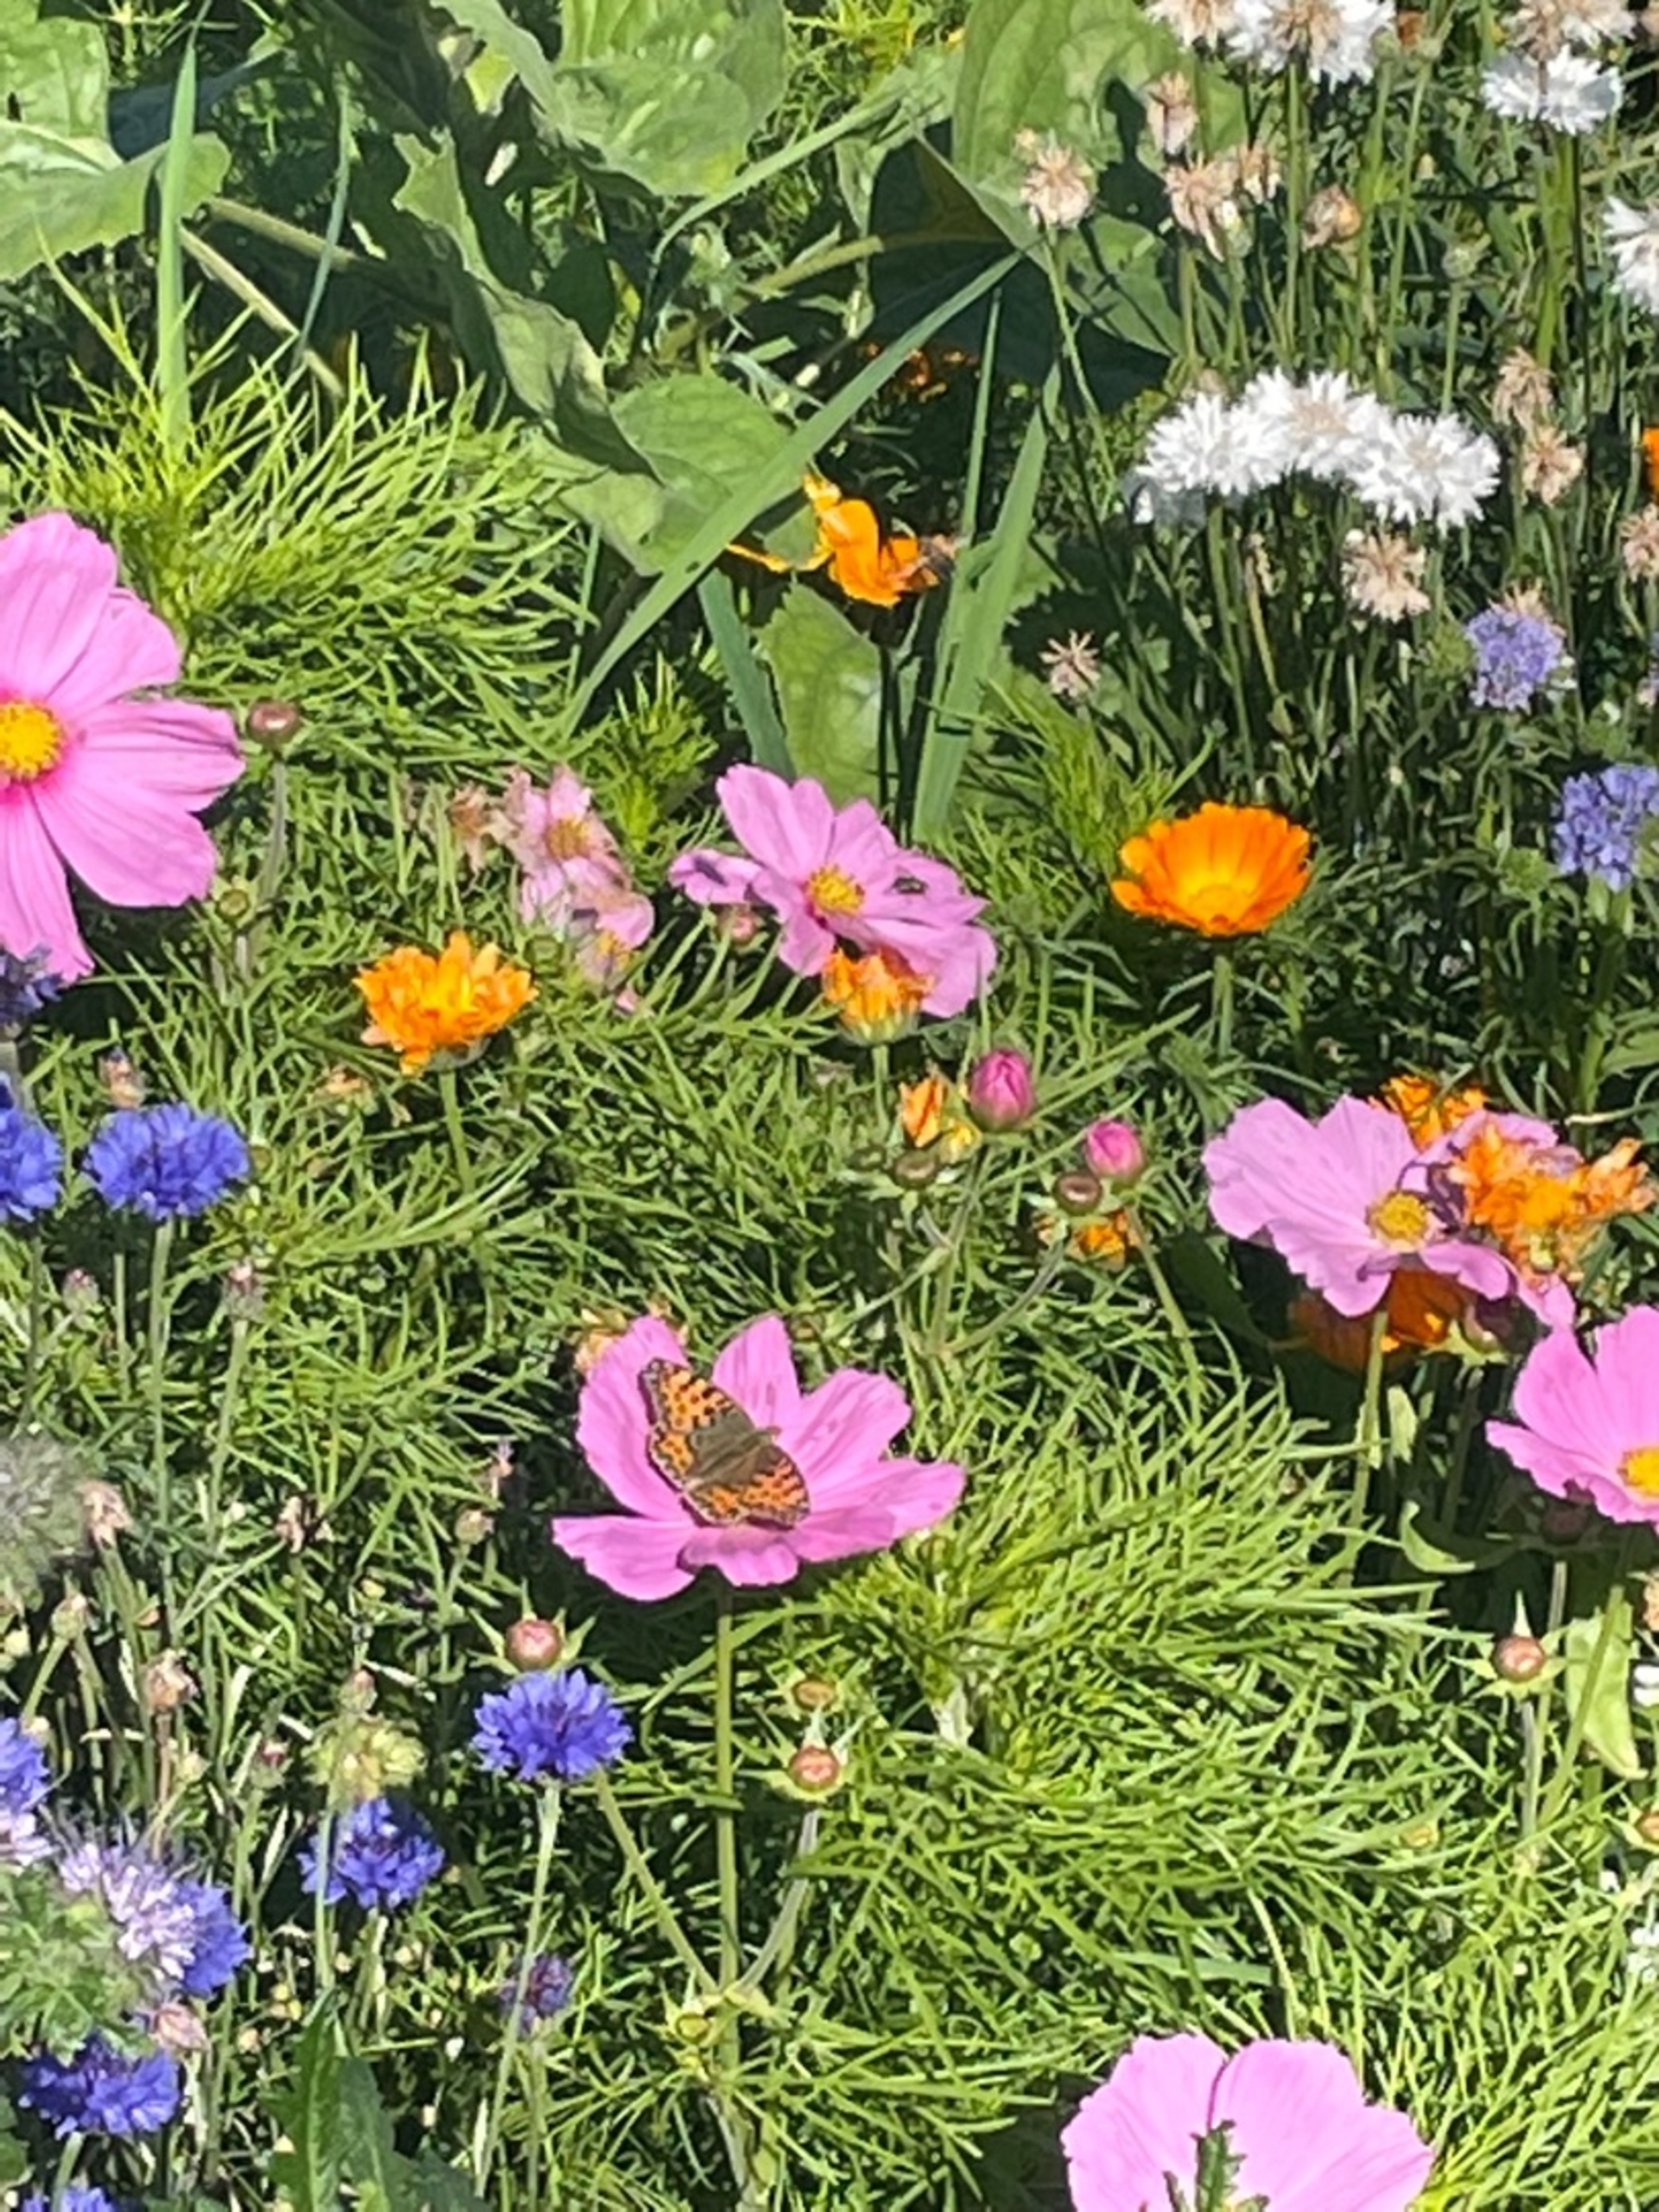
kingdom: Animalia
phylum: Arthropoda
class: Insecta
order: Lepidoptera
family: Nymphalidae
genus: Issoria
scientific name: Issoria lathonia
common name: Storplettet perlemorsommerfugl
